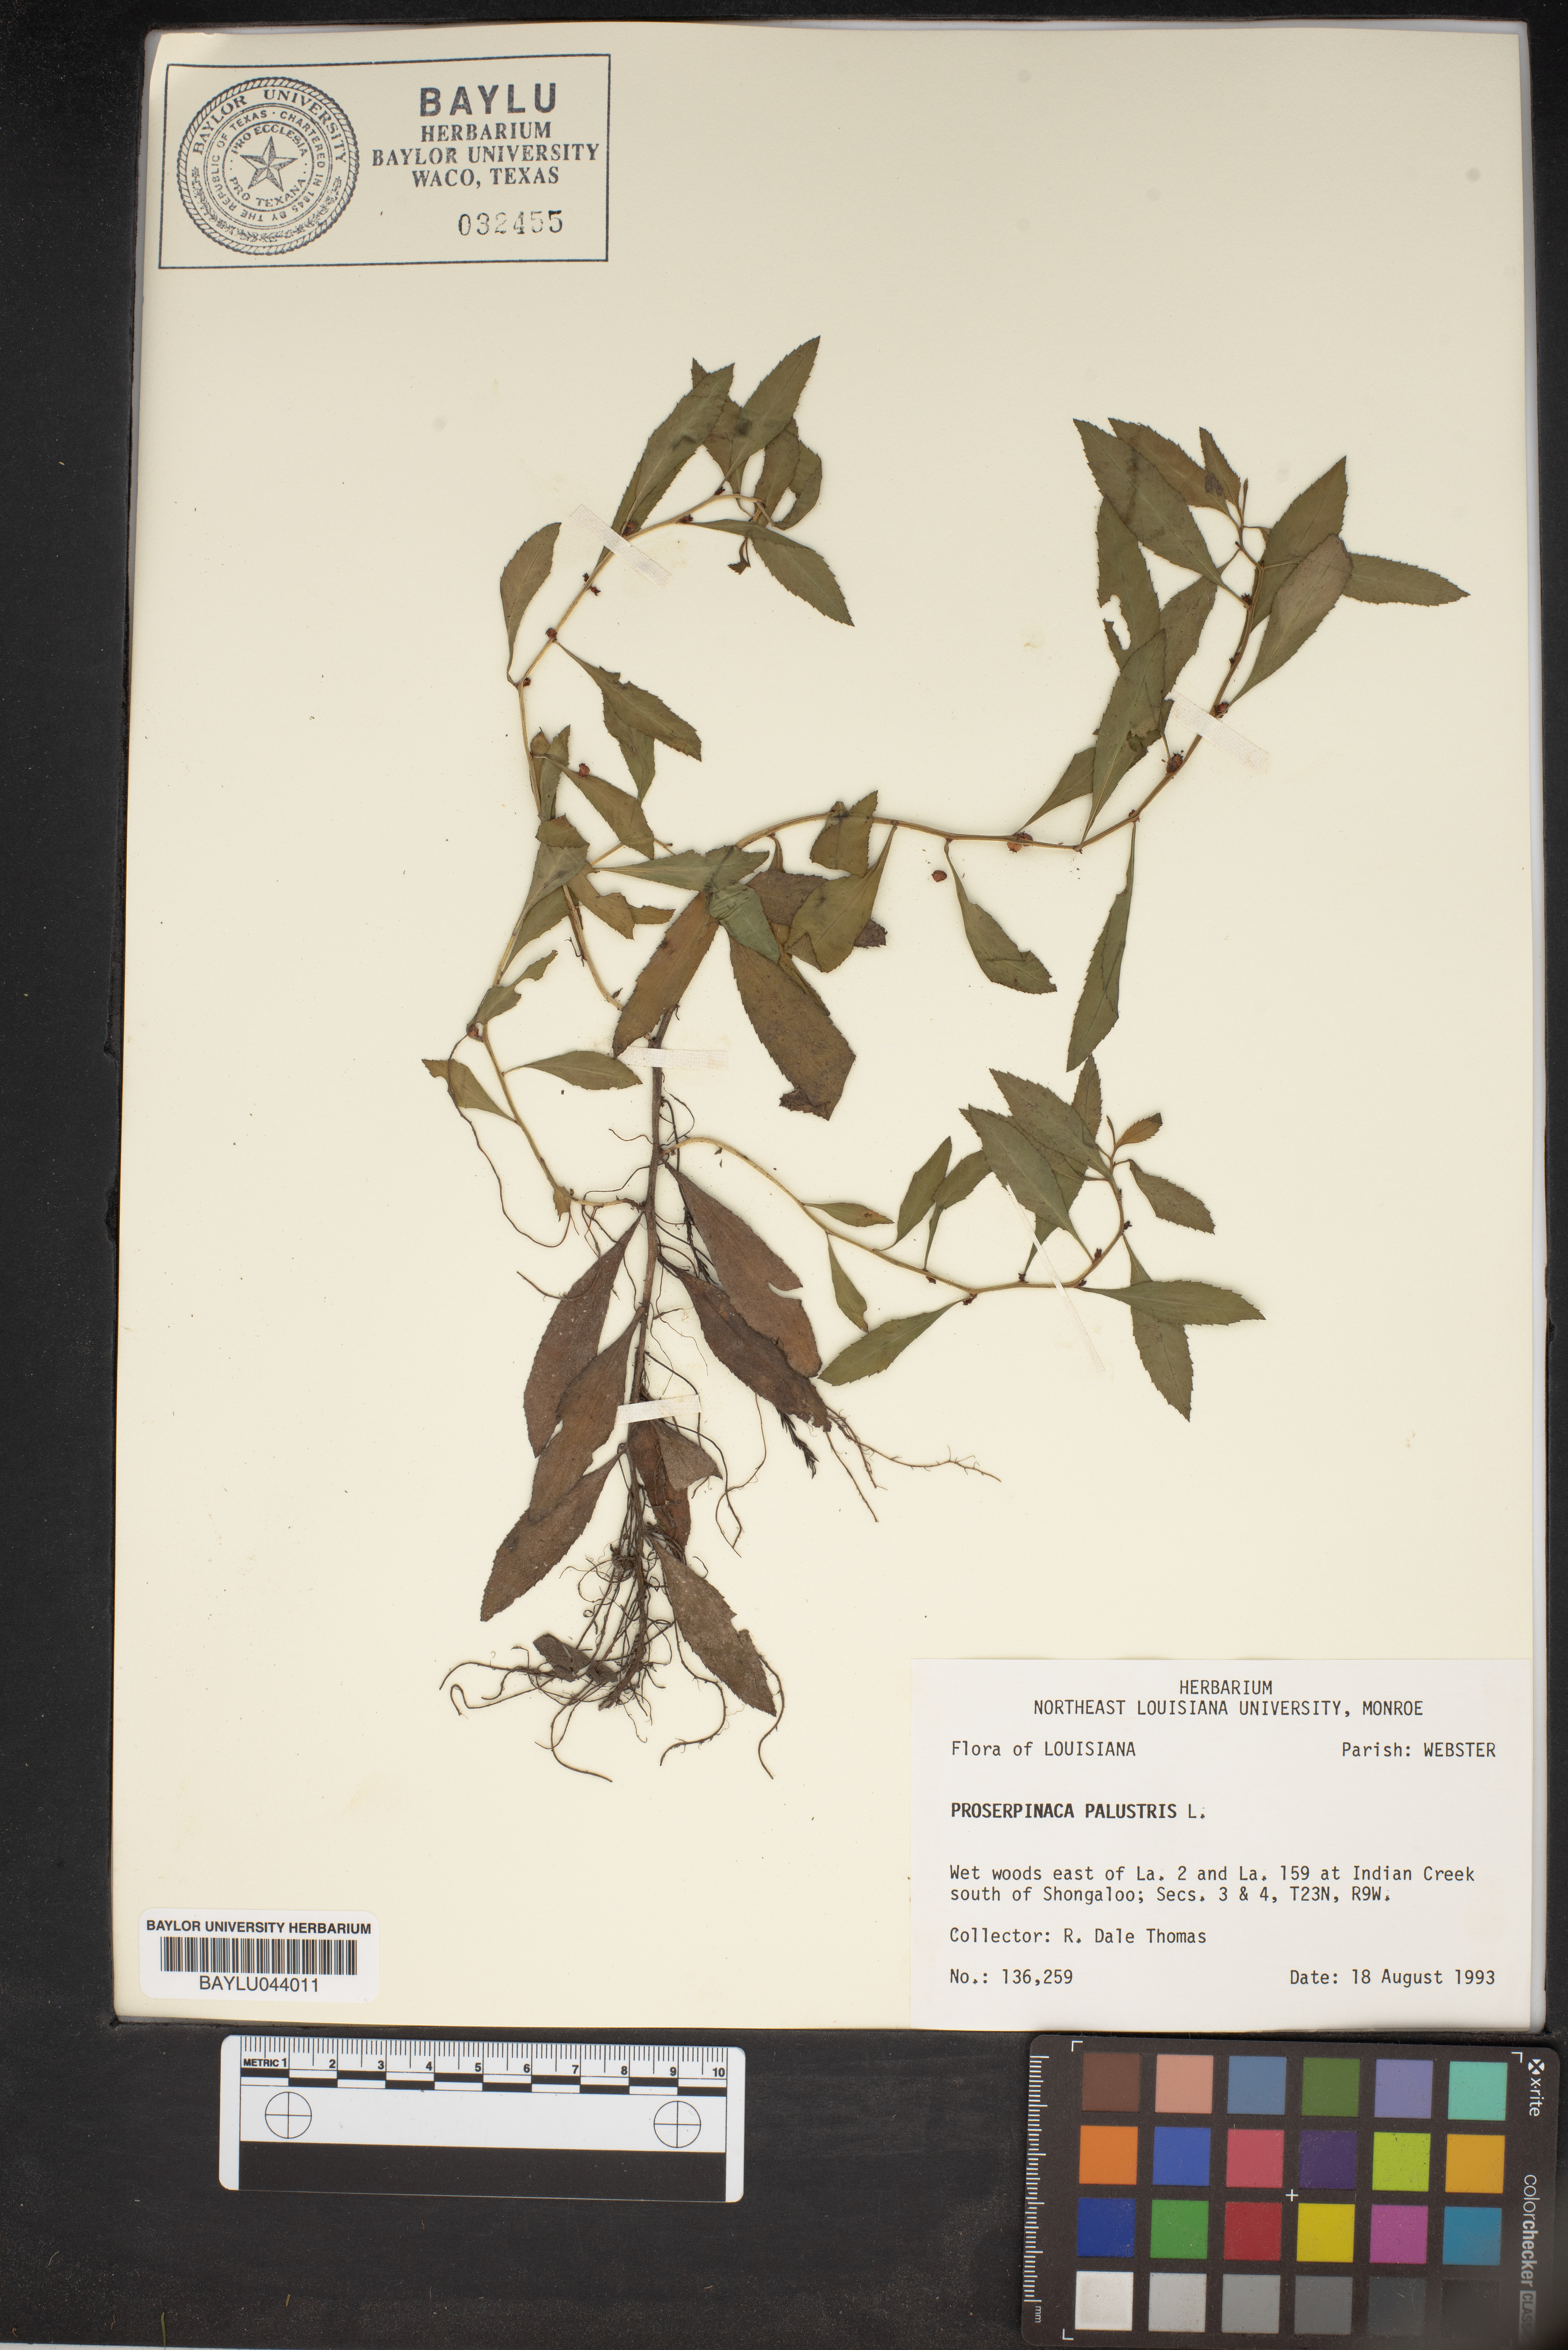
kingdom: Plantae
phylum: Tracheophyta
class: Magnoliopsida
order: Saxifragales
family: Haloragaceae
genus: Proserpinaca
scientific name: Proserpinaca palustris
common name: Marsh mermaidweed
